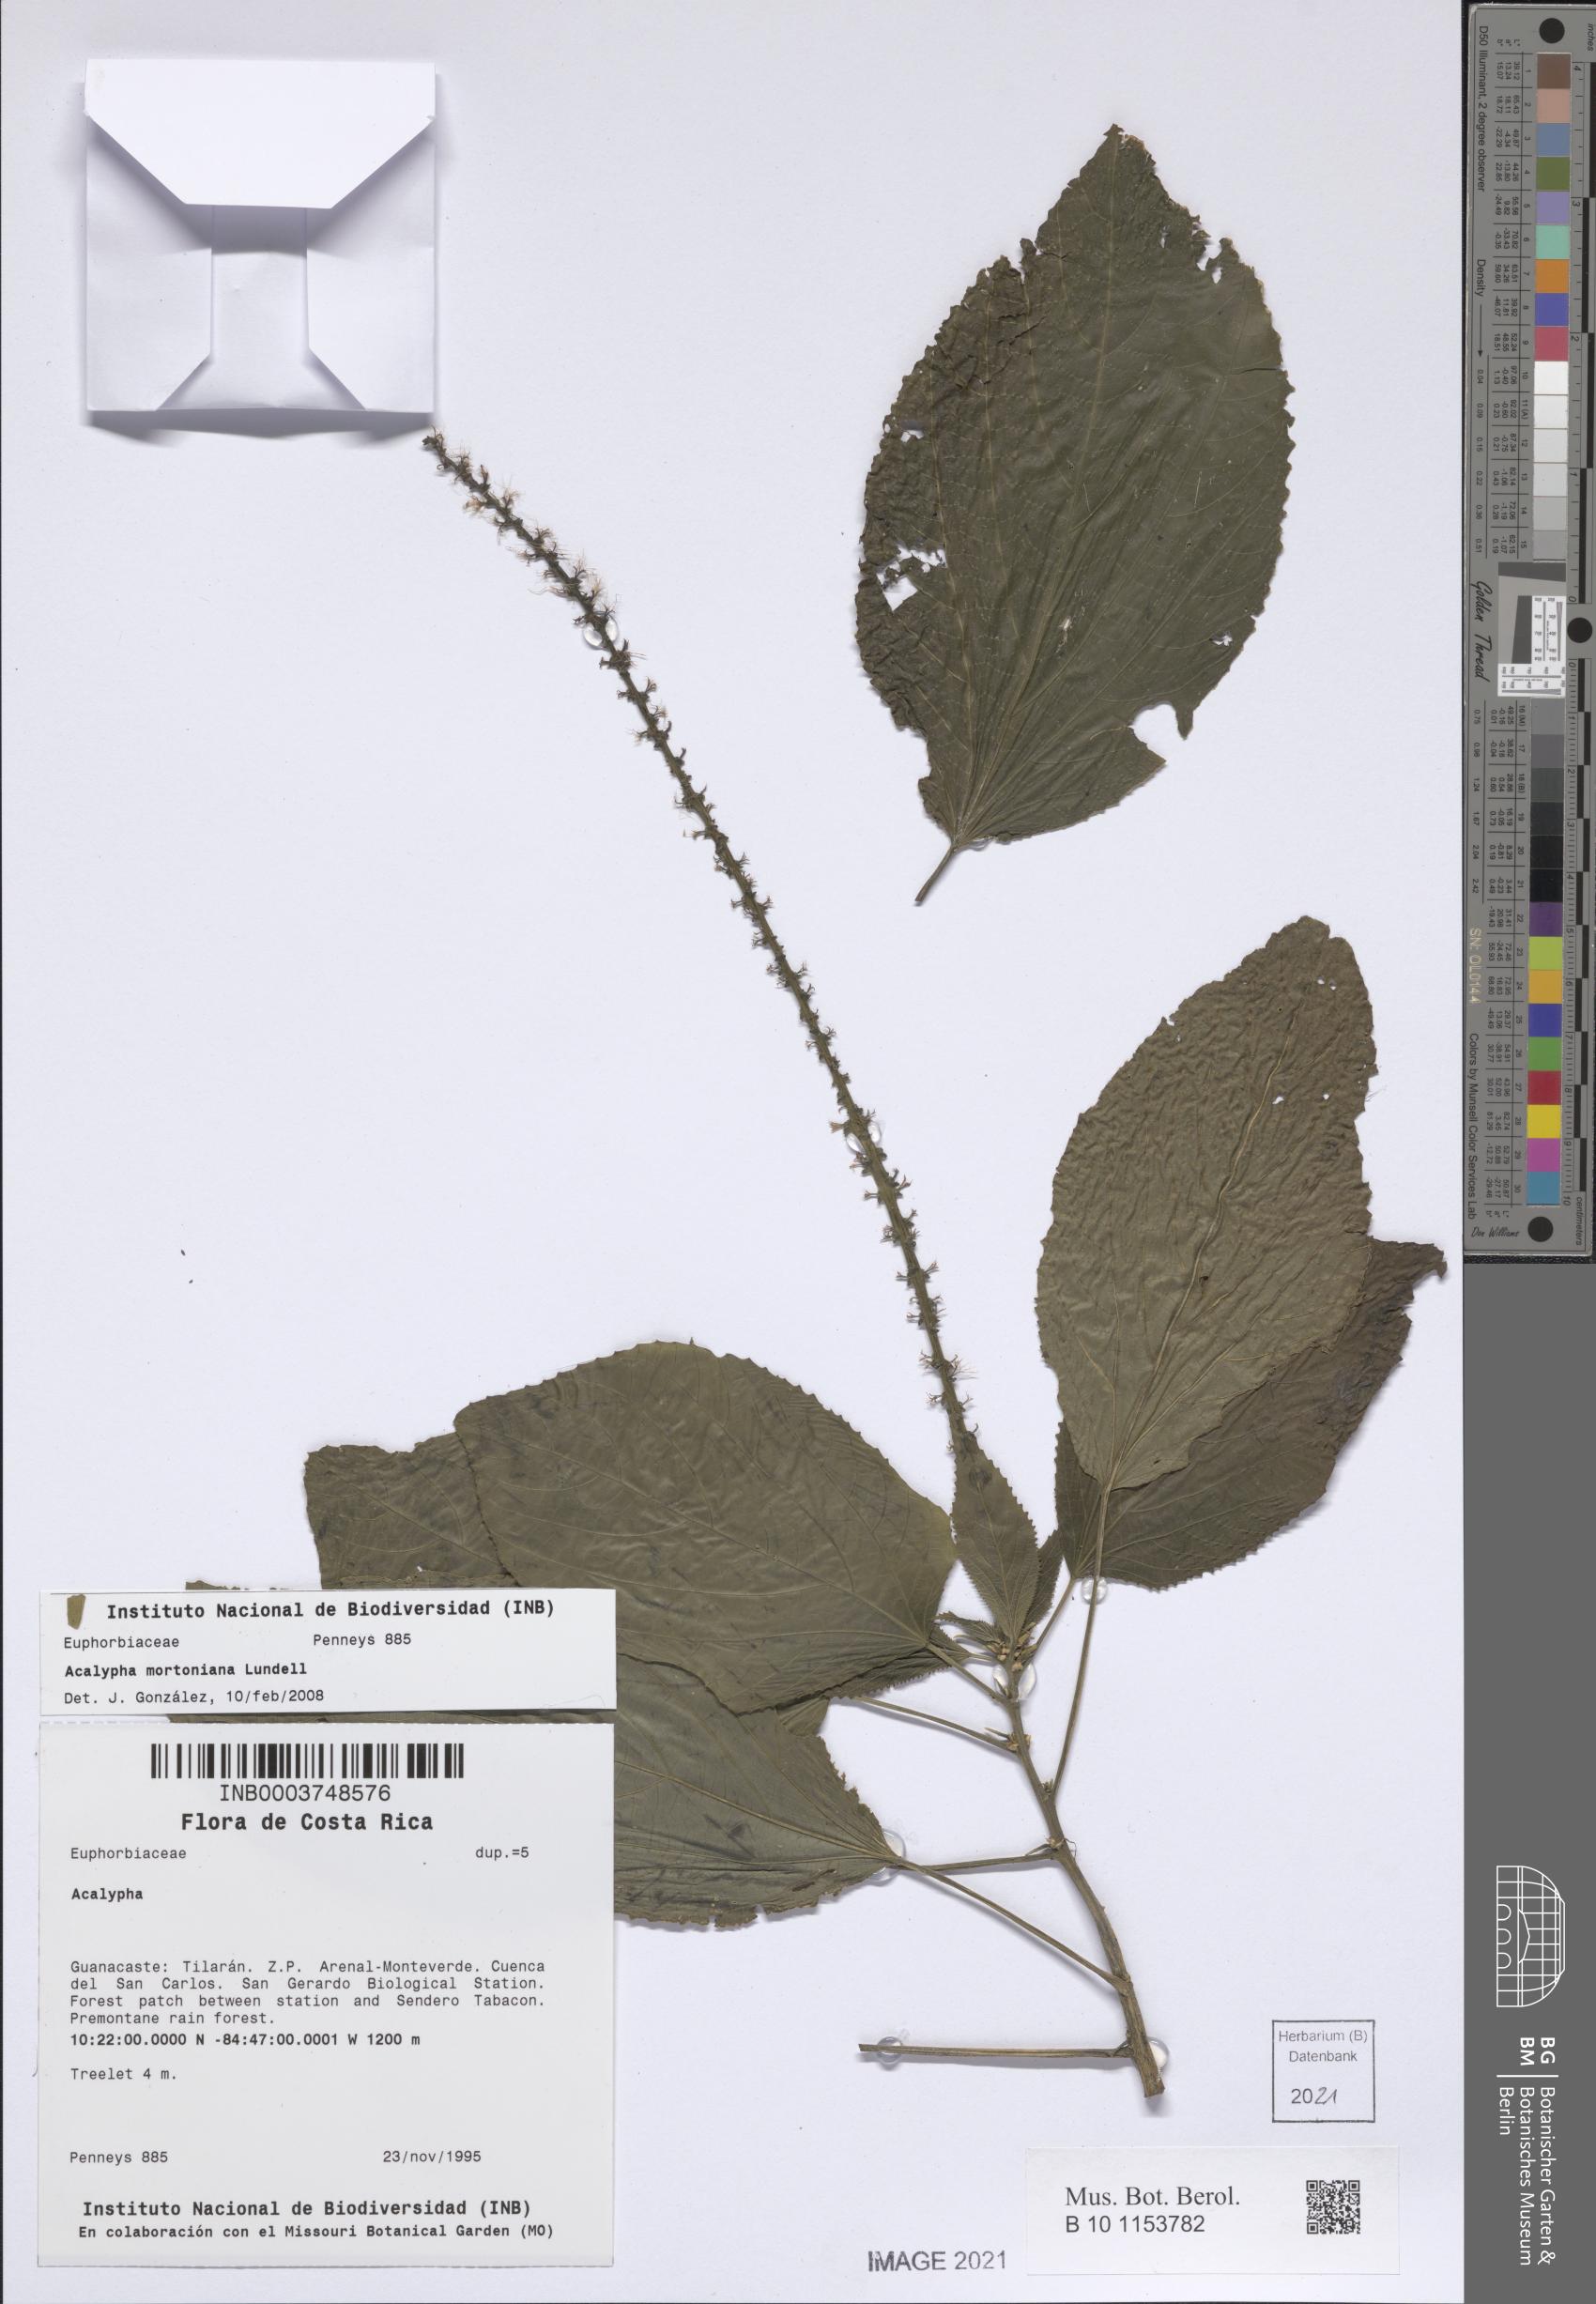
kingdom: Plantae
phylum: Tracheophyta
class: Magnoliopsida
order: Malpighiales
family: Euphorbiaceae
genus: Acalypha
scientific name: Acalypha radinostachya
